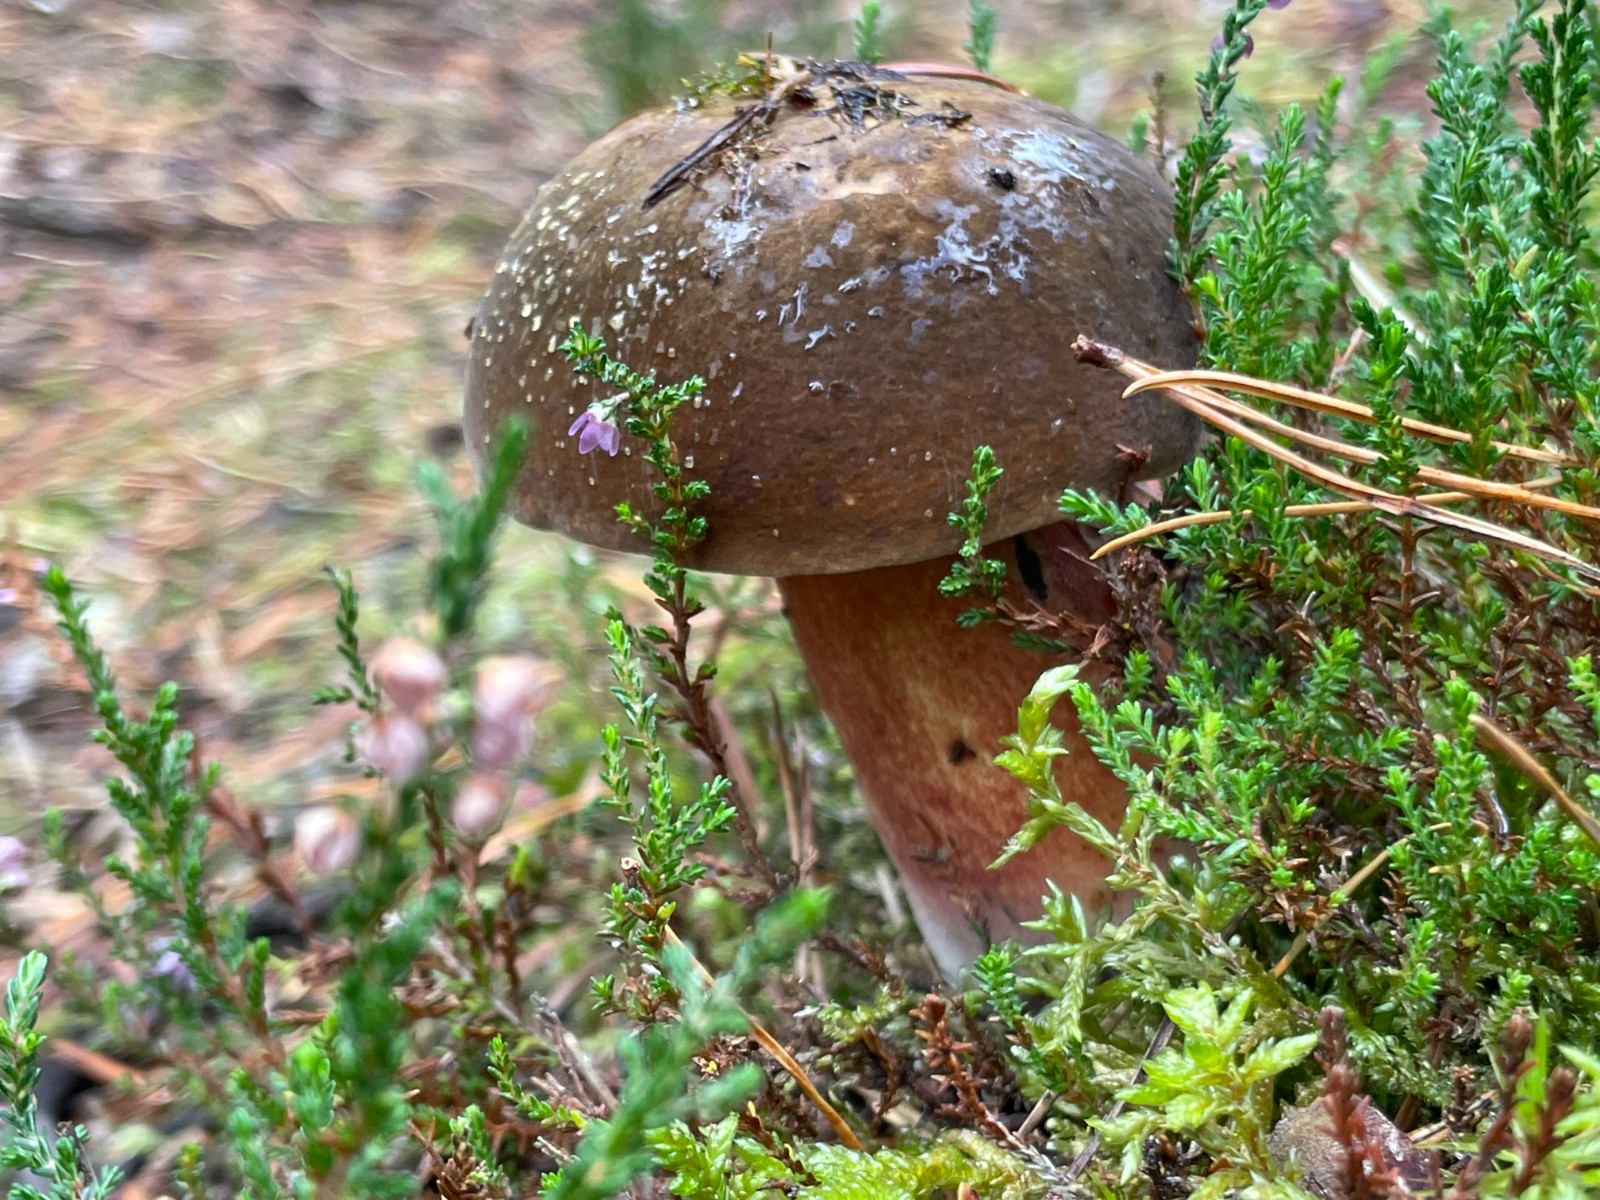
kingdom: Fungi
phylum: Basidiomycota
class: Agaricomycetes
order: Boletales
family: Boletaceae
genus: Neoboletus
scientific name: Neoboletus erythropus
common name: punktstokket indigorørhat
